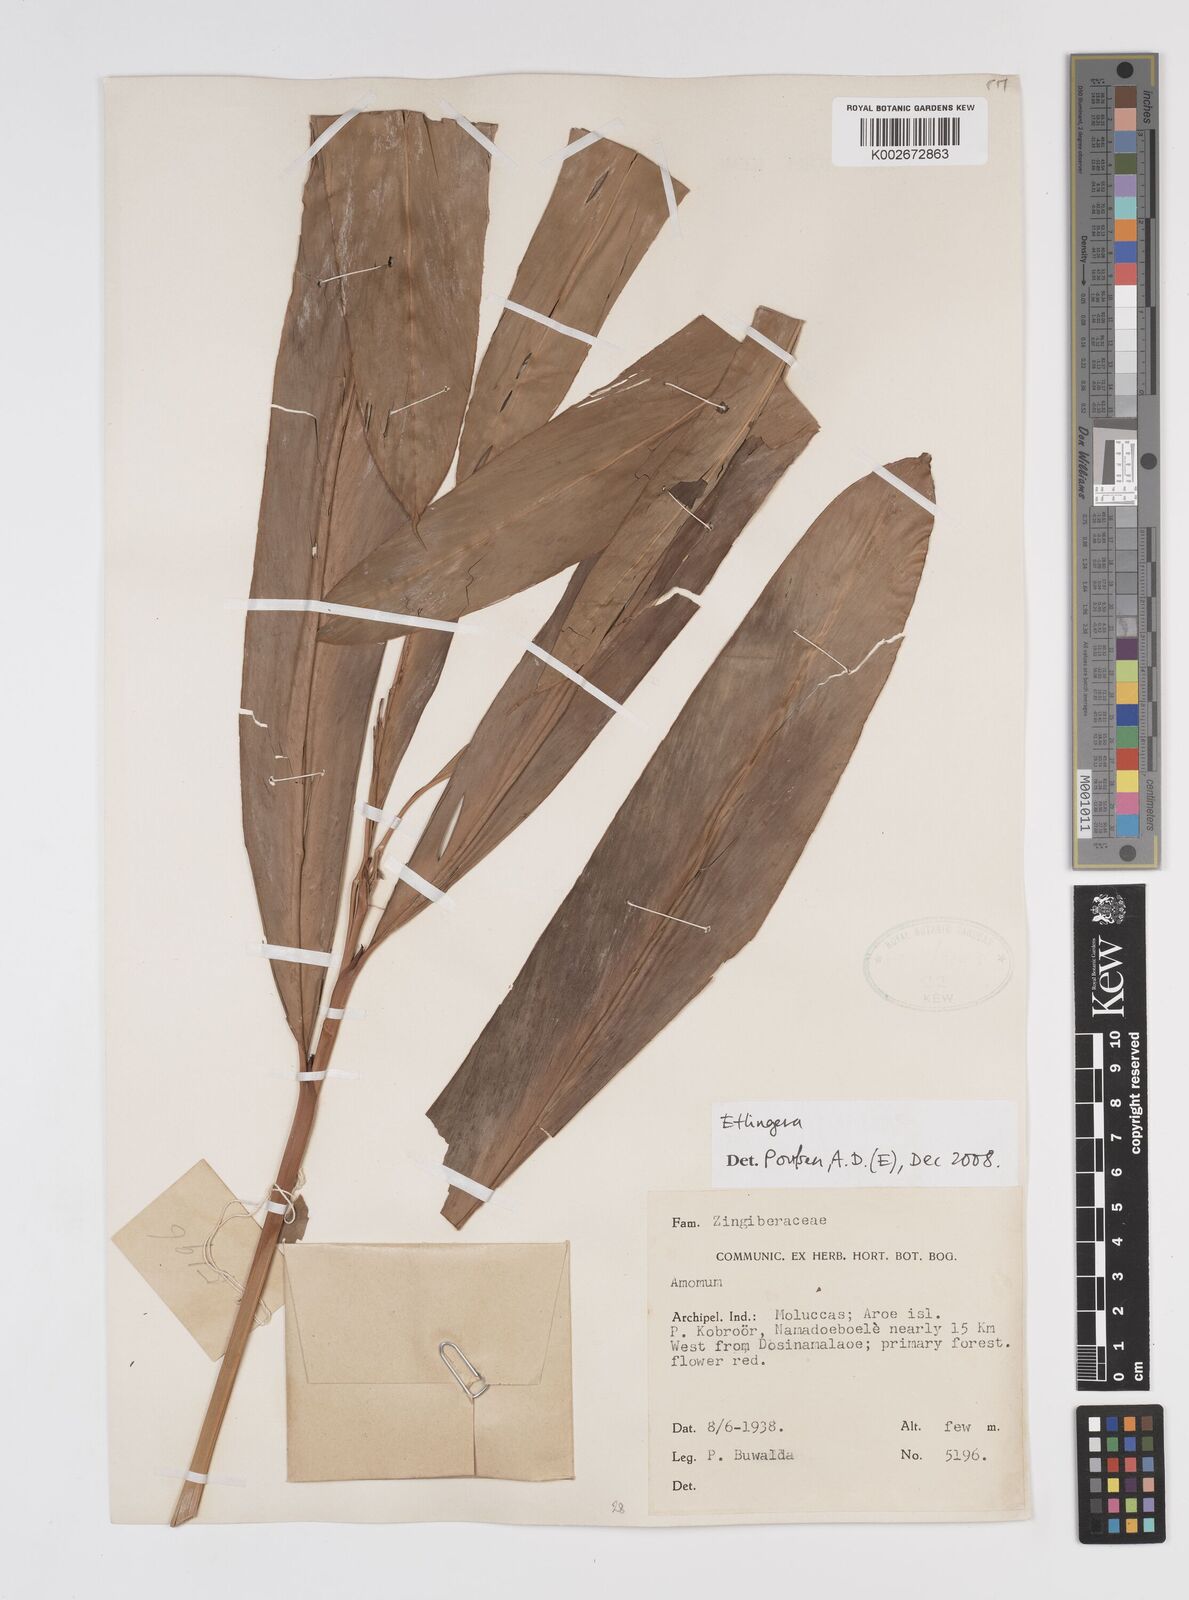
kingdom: Plantae
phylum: Tracheophyta
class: Liliopsida
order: Zingiberales
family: Zingiberaceae
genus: Etlingera
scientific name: Etlingera
